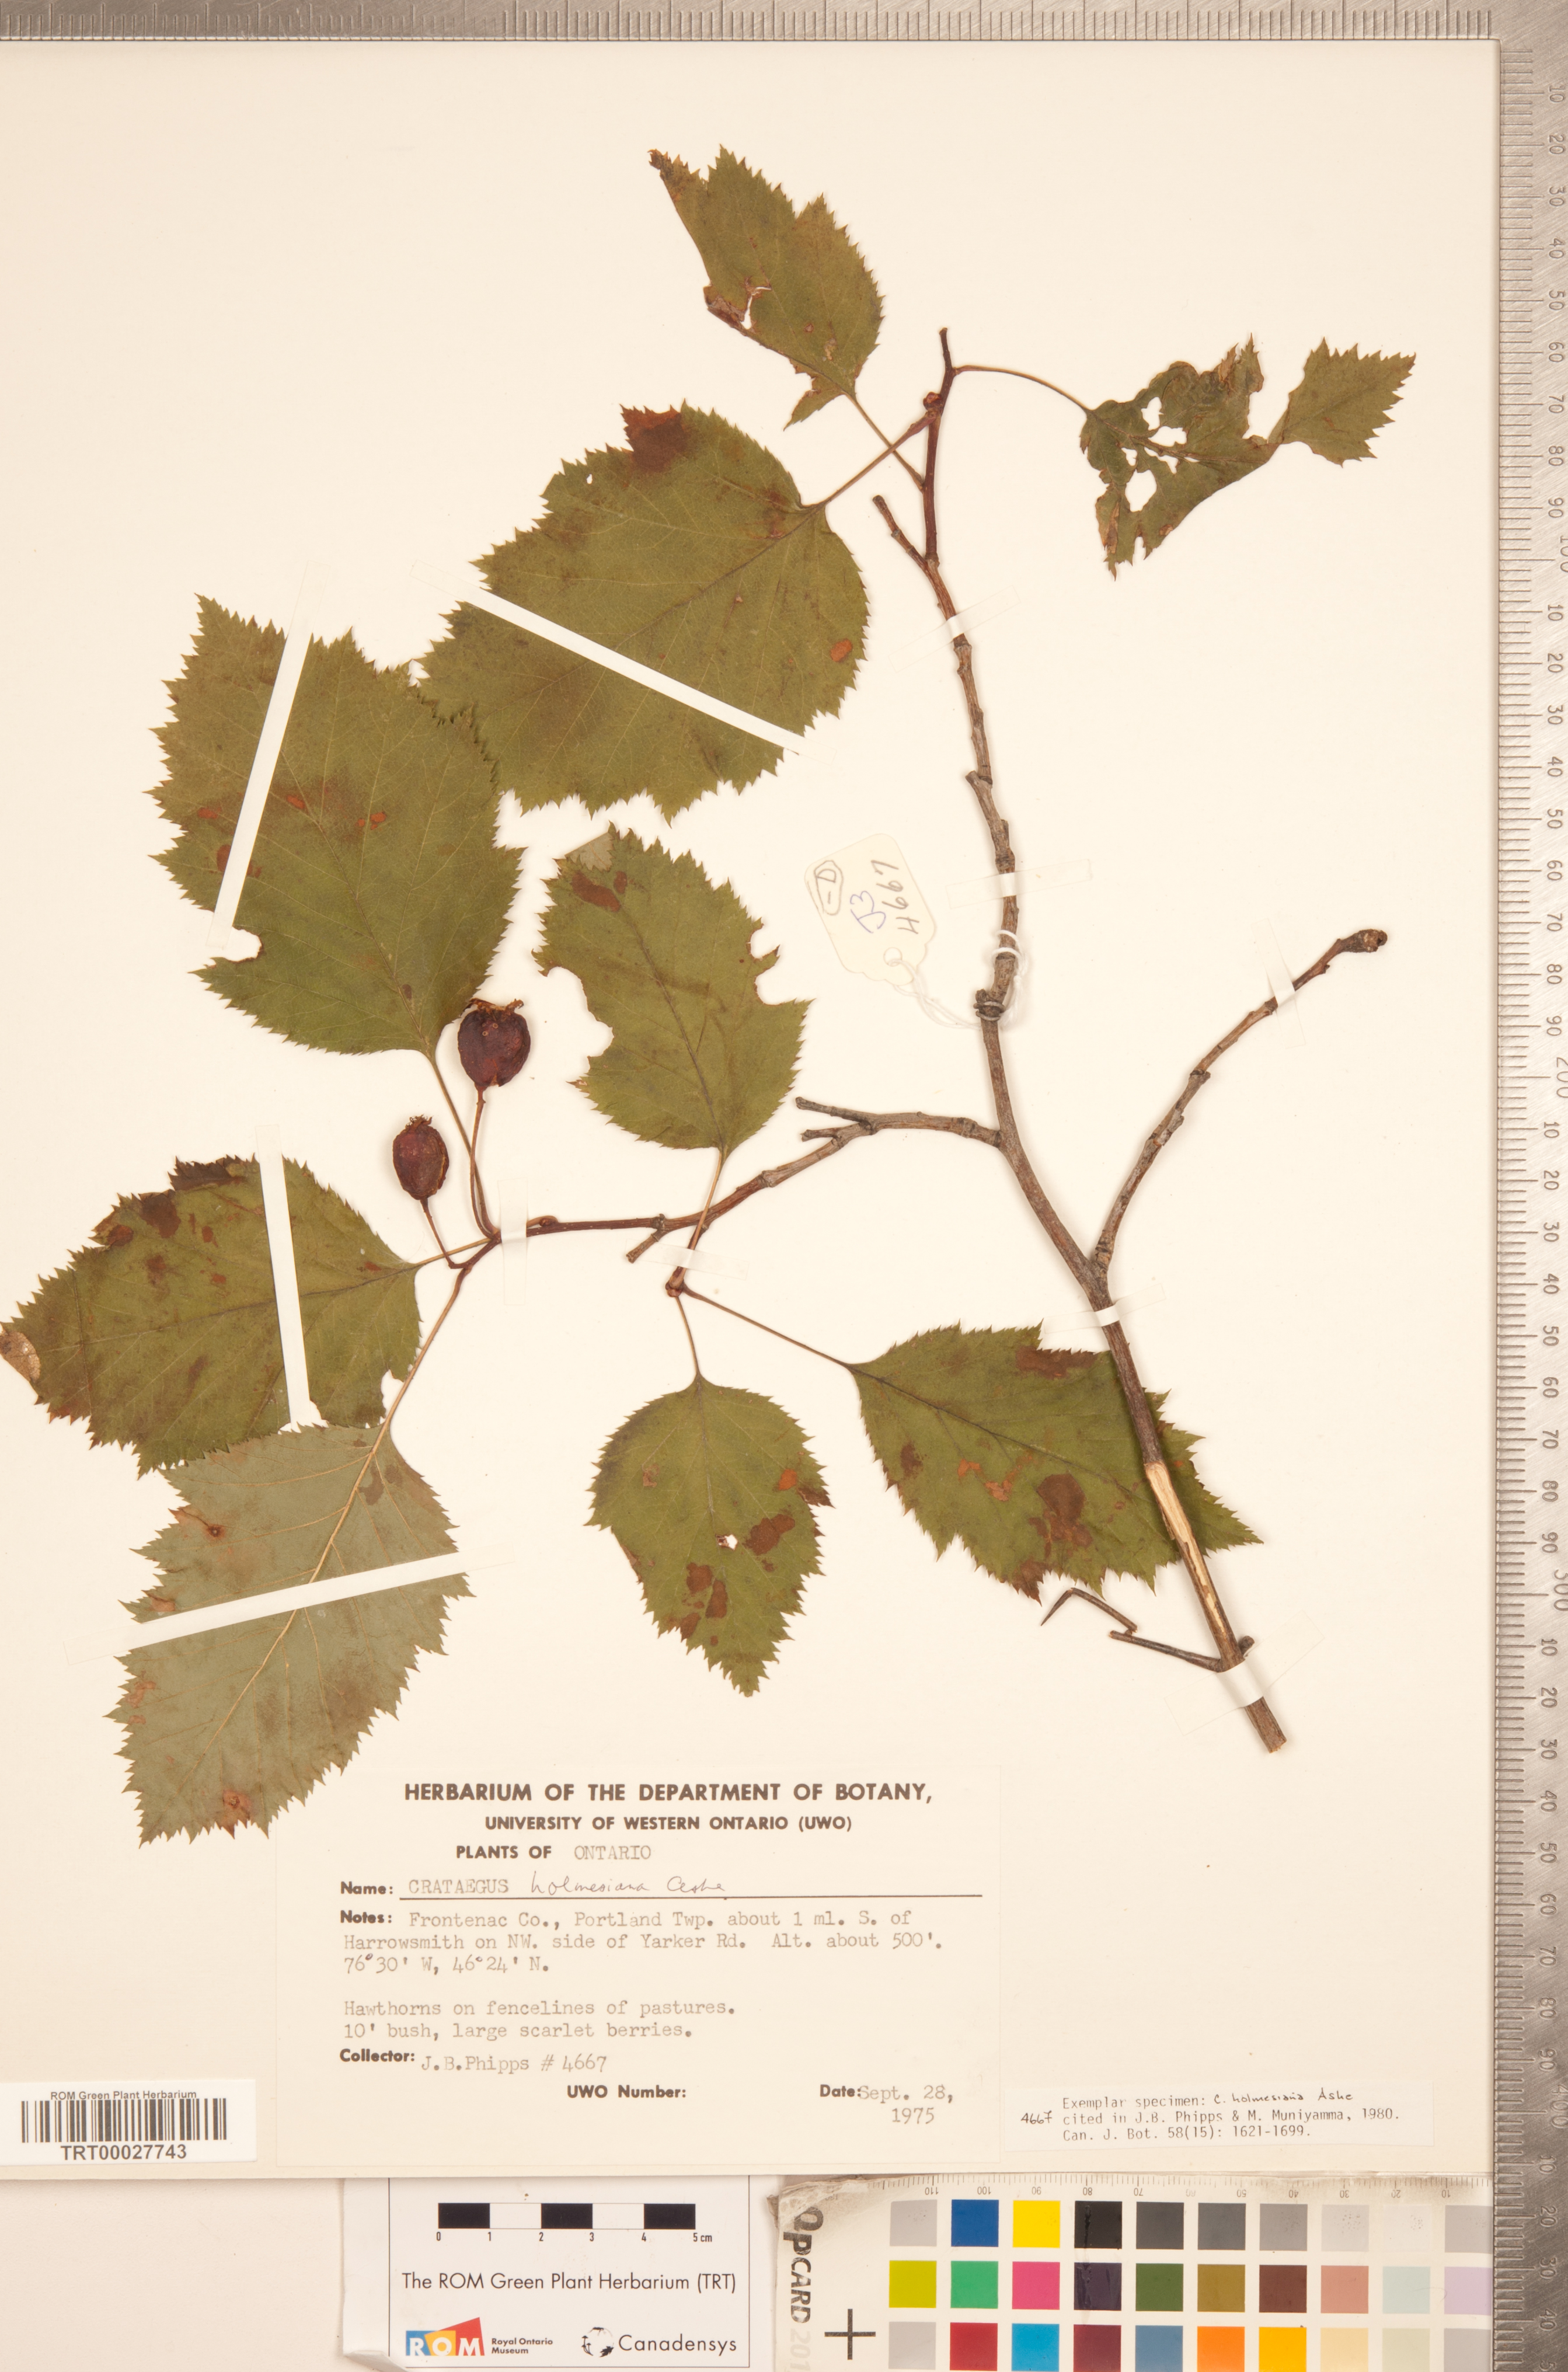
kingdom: Plantae
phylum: Tracheophyta
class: Magnoliopsida
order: Rosales
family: Rosaceae
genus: Crataegus
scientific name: Crataegus holmesiana
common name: Holmes' hawthorn
